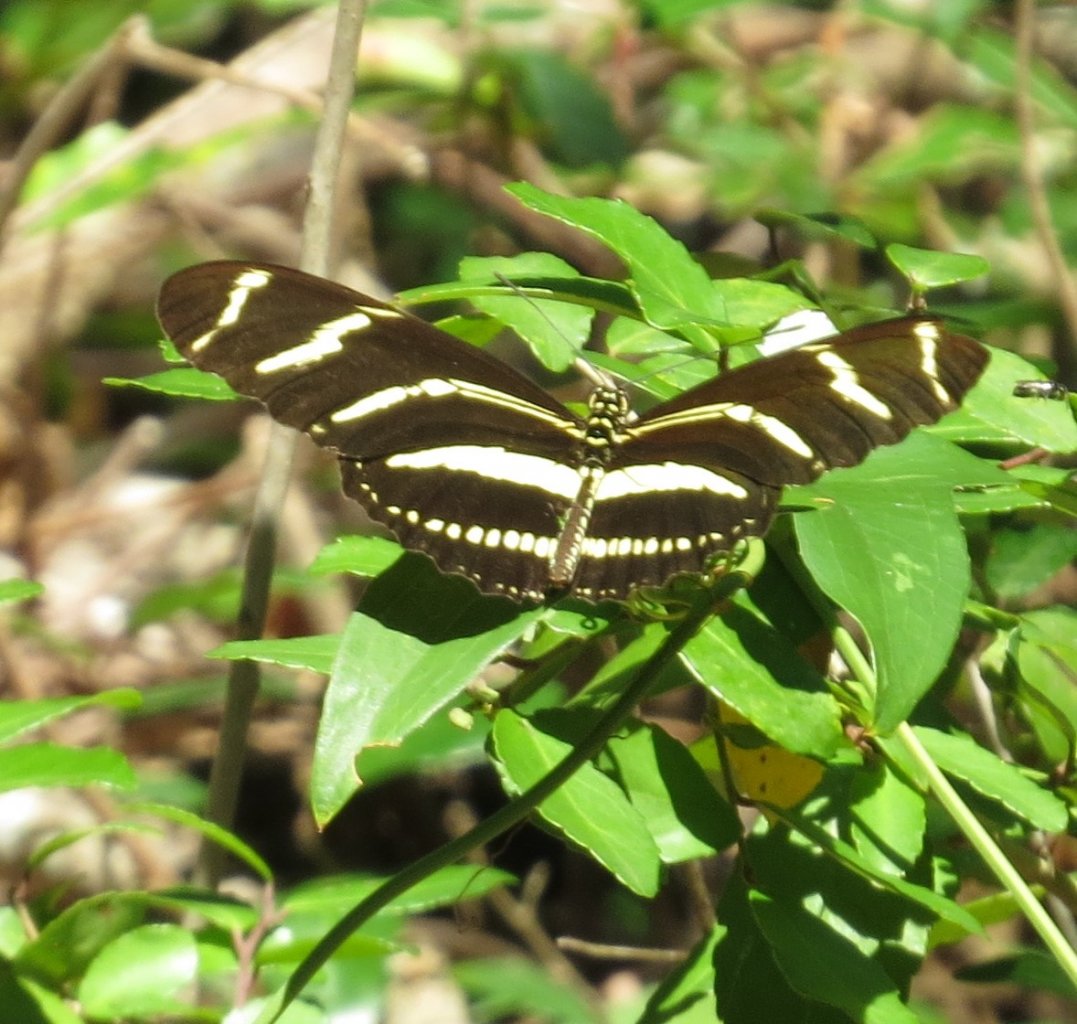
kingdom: Animalia
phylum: Arthropoda
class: Insecta
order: Lepidoptera
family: Nymphalidae
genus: Heliconius
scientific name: Heliconius charithonia
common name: Zebra Longwing
